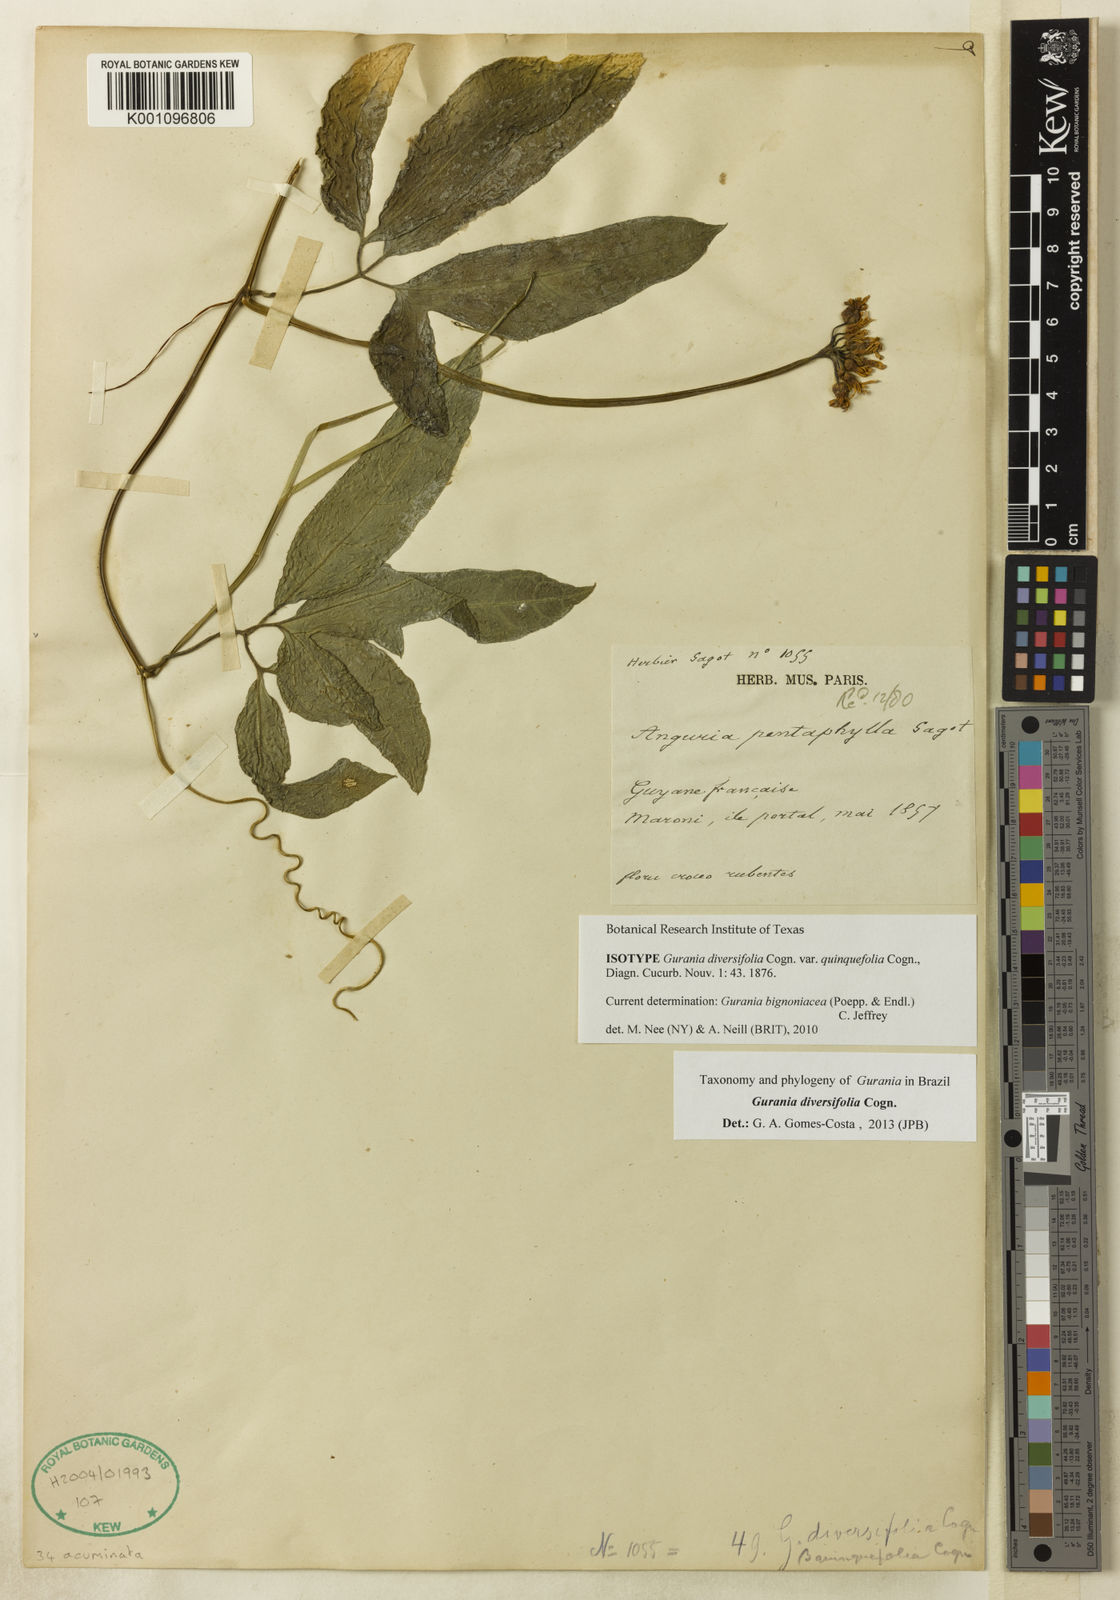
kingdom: Plantae
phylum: Tracheophyta
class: Magnoliopsida
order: Cucurbitales
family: Cucurbitaceae
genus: Gurania
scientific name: Gurania bignoniacea
